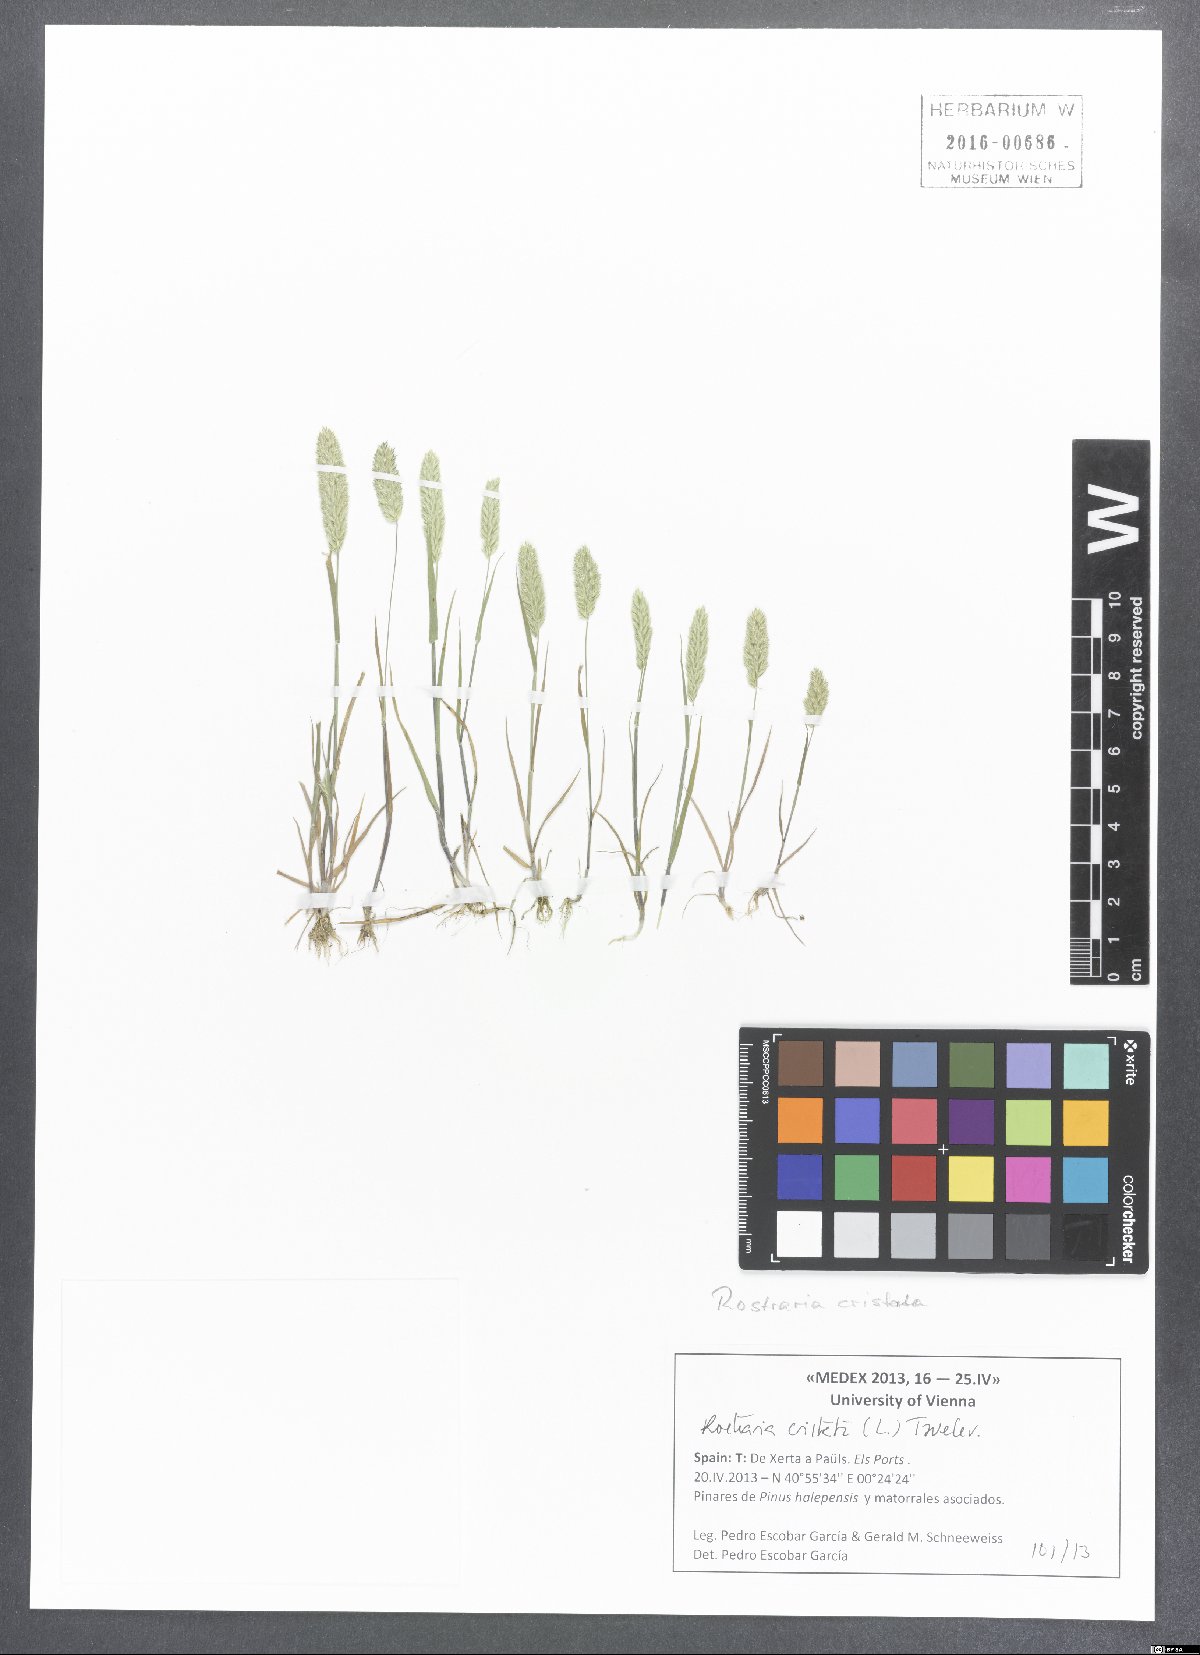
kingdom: Plantae
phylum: Tracheophyta
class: Liliopsida
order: Poales
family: Poaceae
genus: Rostraria
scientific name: Rostraria cristata
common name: Mediterranean hair-grass
